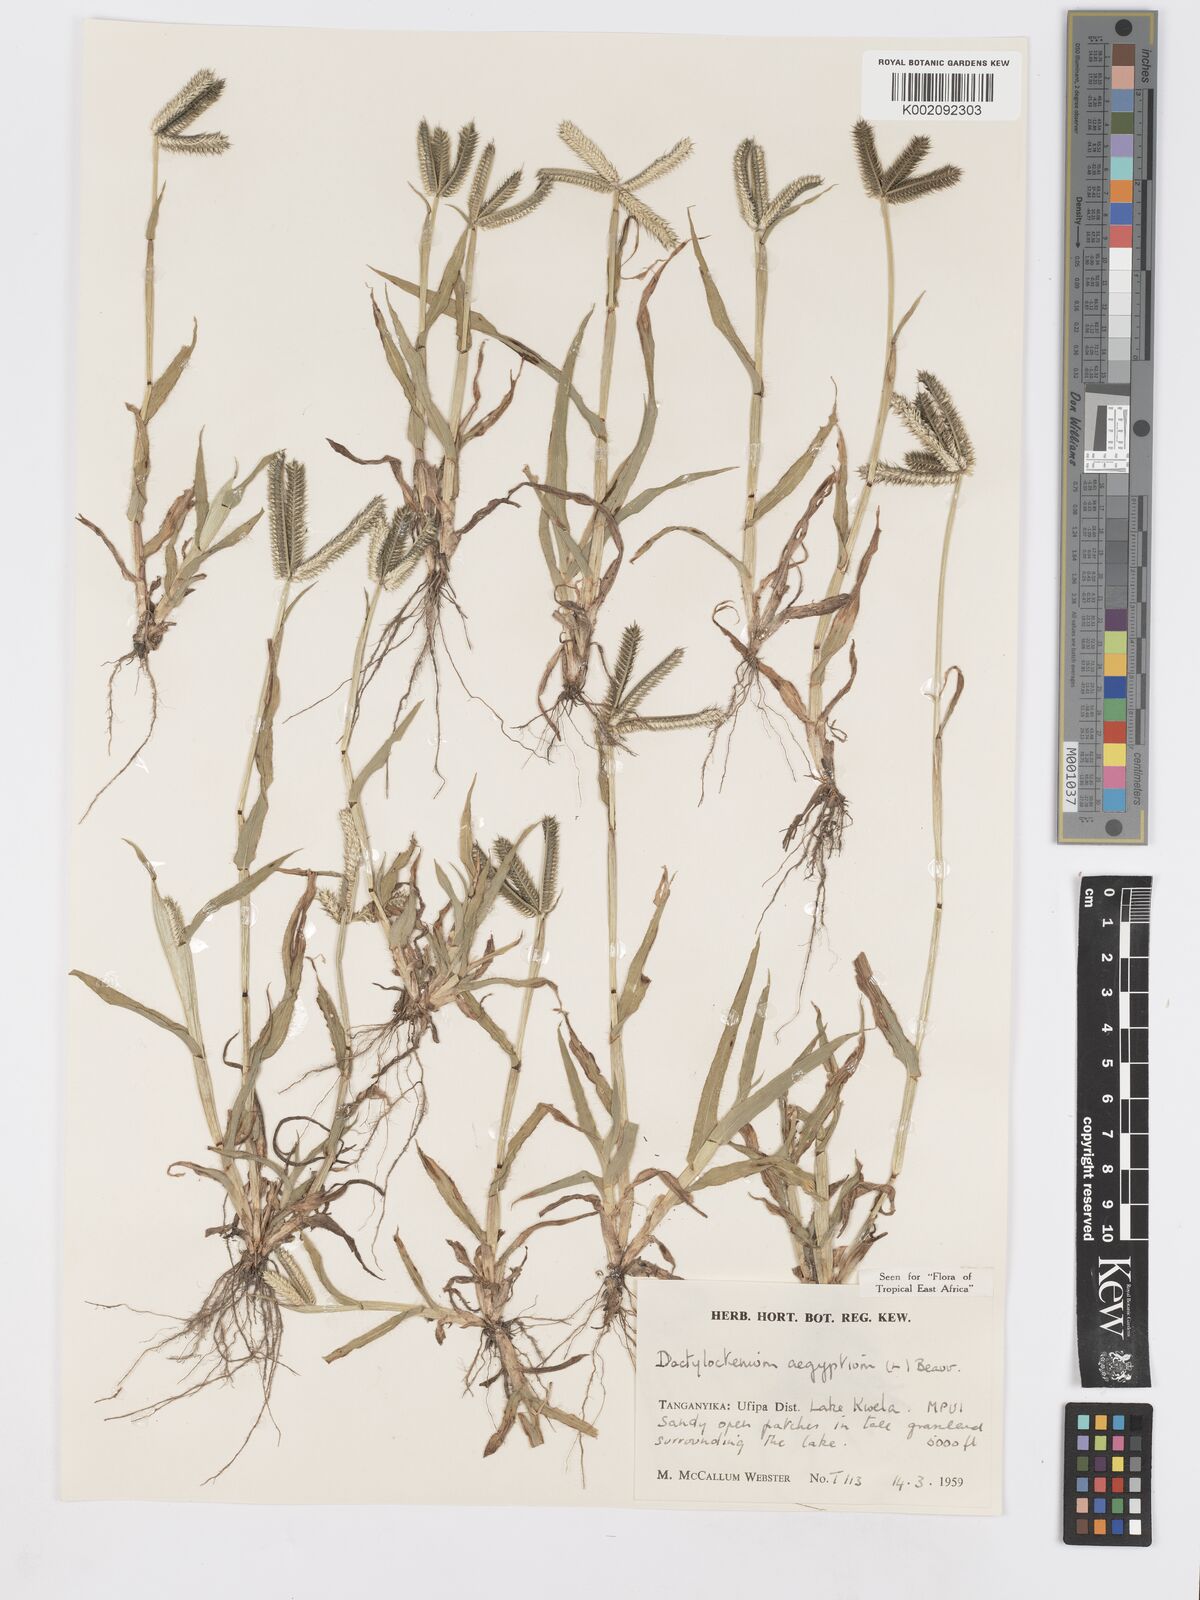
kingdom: Plantae
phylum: Tracheophyta
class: Liliopsida
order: Poales
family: Poaceae
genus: Dactyloctenium
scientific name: Dactyloctenium aegyptium
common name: Egyptian grass
